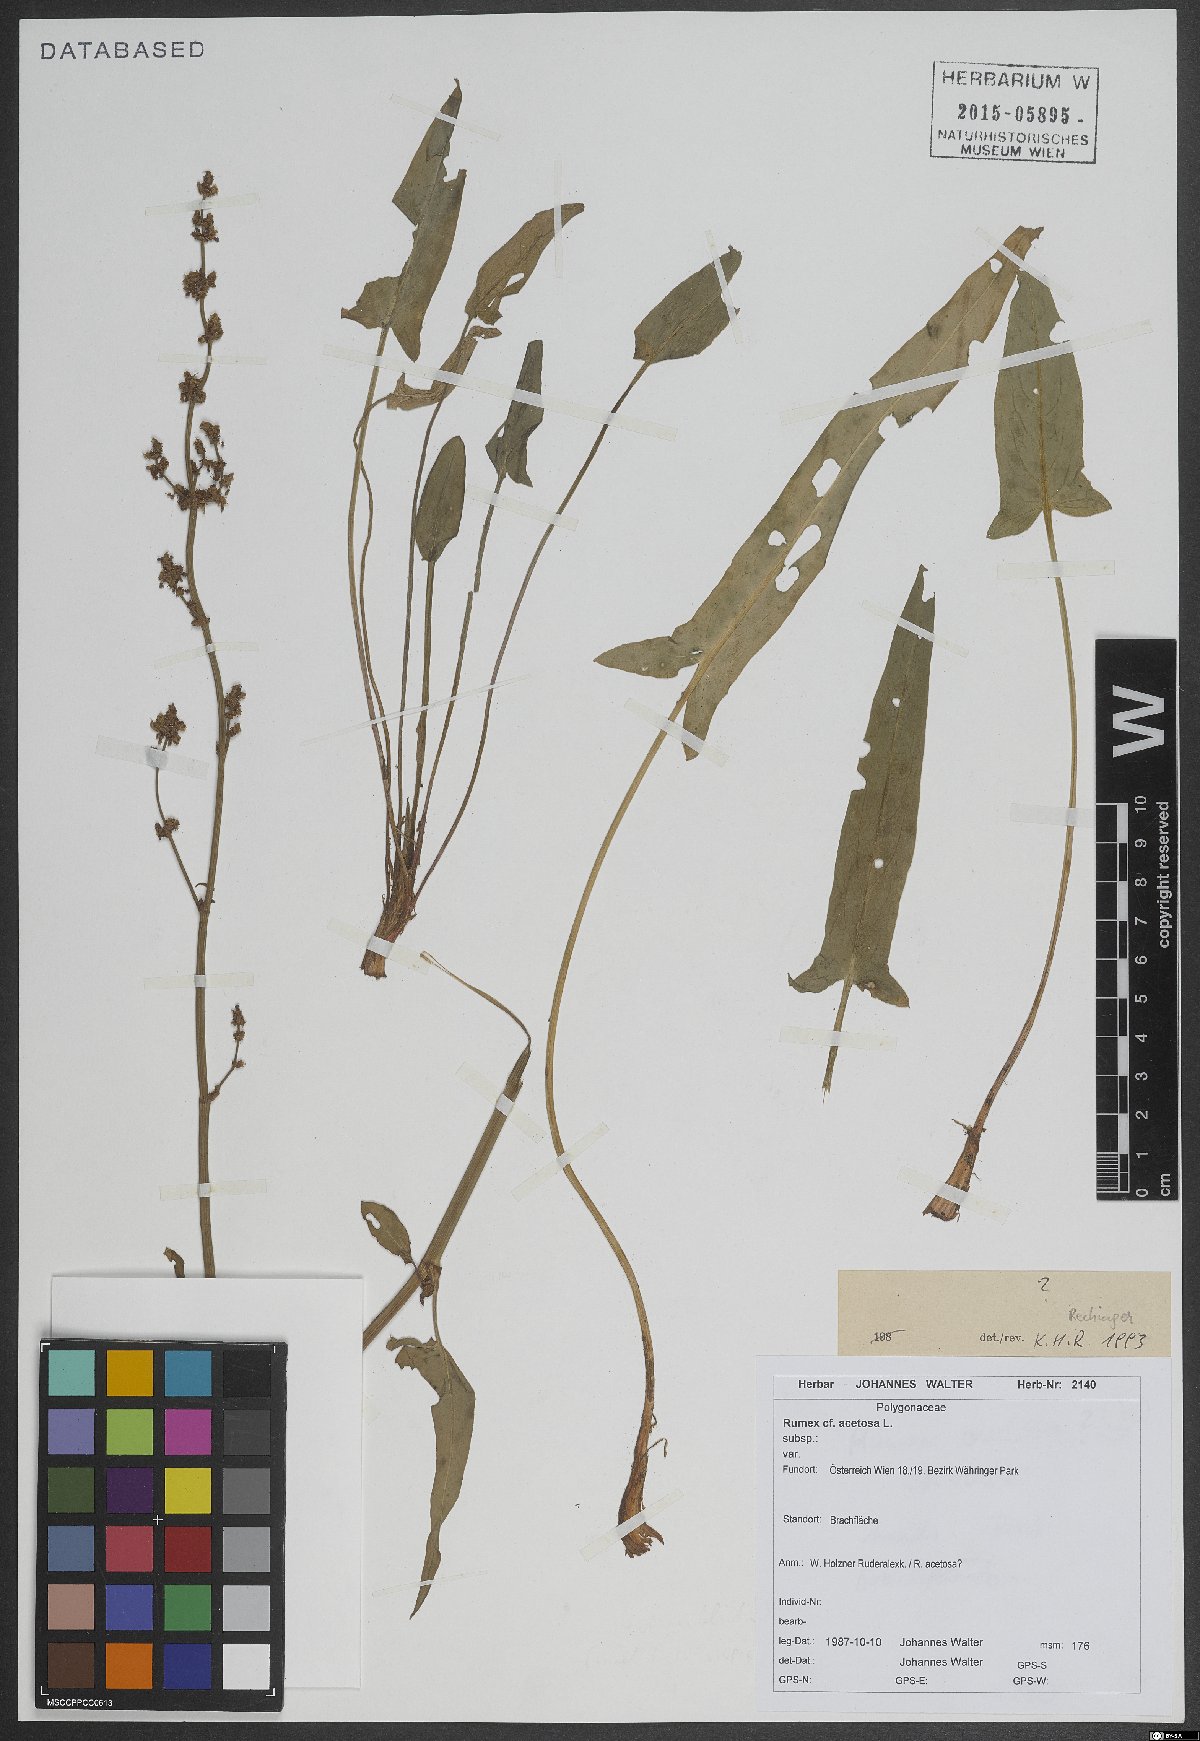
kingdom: Plantae
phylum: Tracheophyta
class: Magnoliopsida
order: Caryophyllales
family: Polygonaceae
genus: Rumex
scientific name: Rumex acetosa
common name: Garden sorrel
